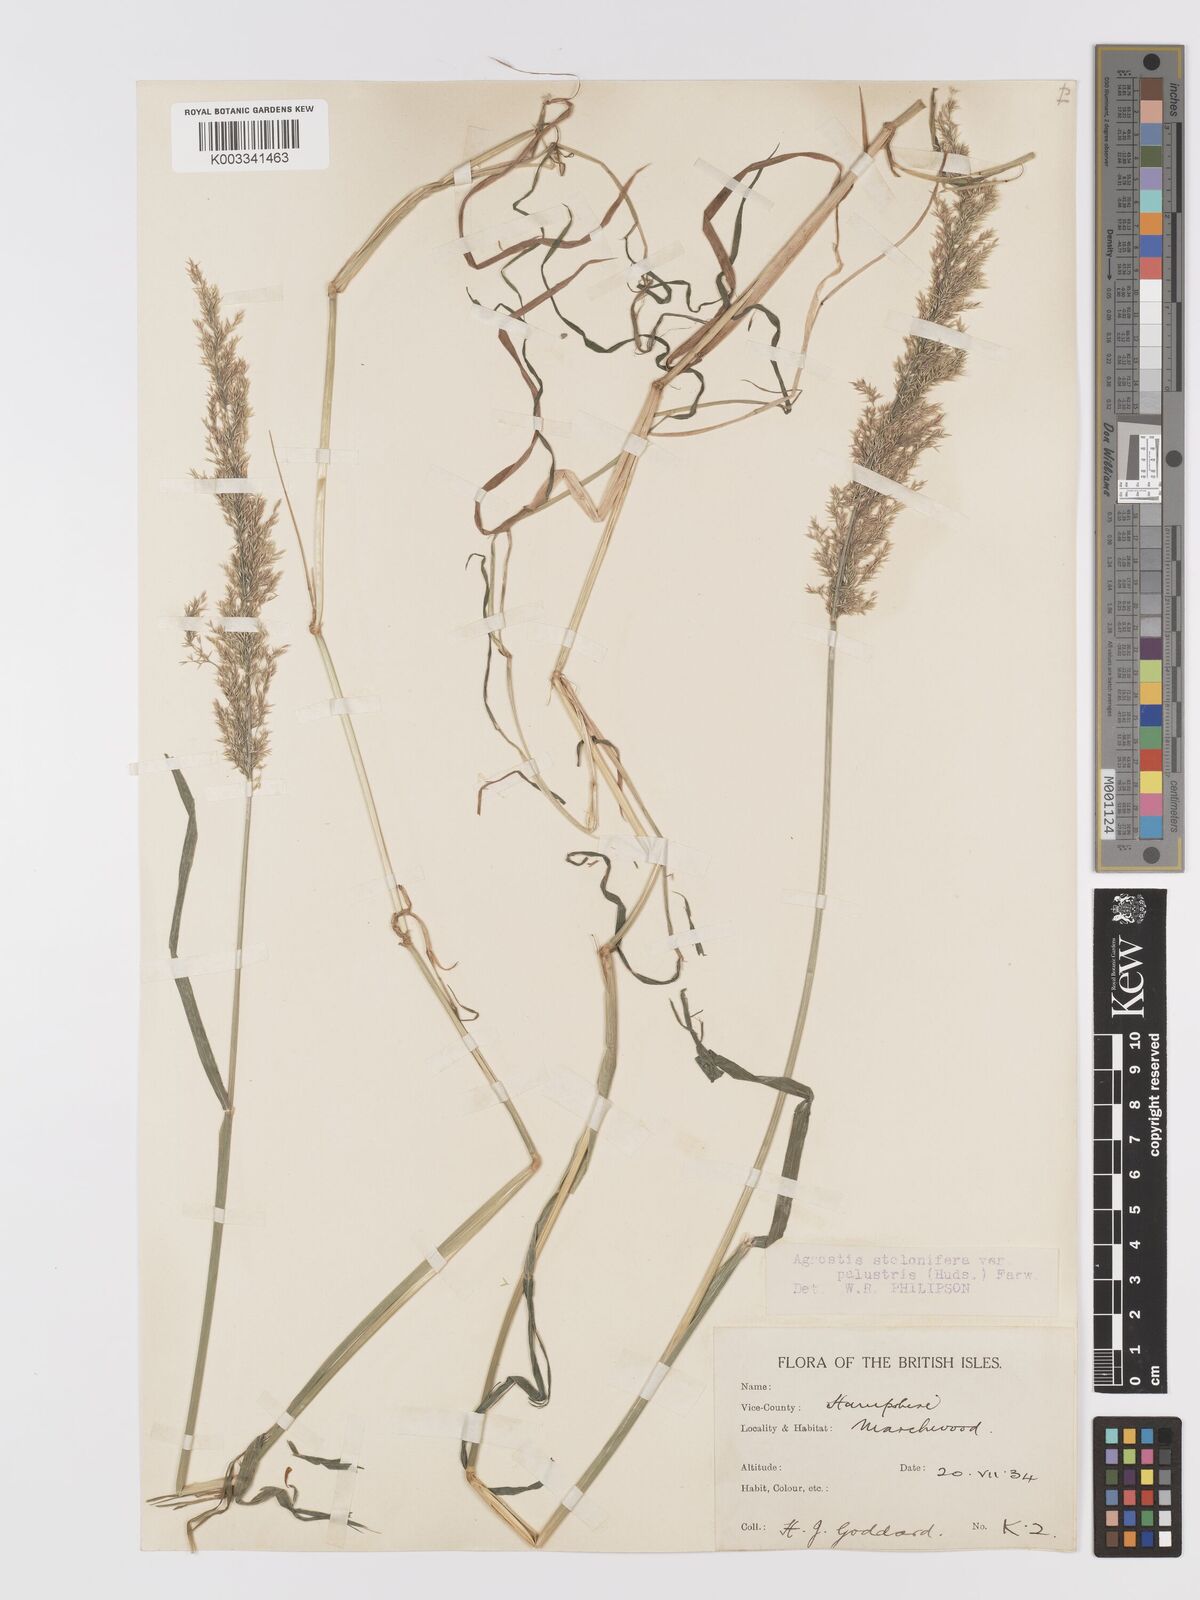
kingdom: Plantae
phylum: Tracheophyta
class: Liliopsida
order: Poales
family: Poaceae
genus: Agrostis
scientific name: Agrostis stolonifera
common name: Creeping bentgrass
